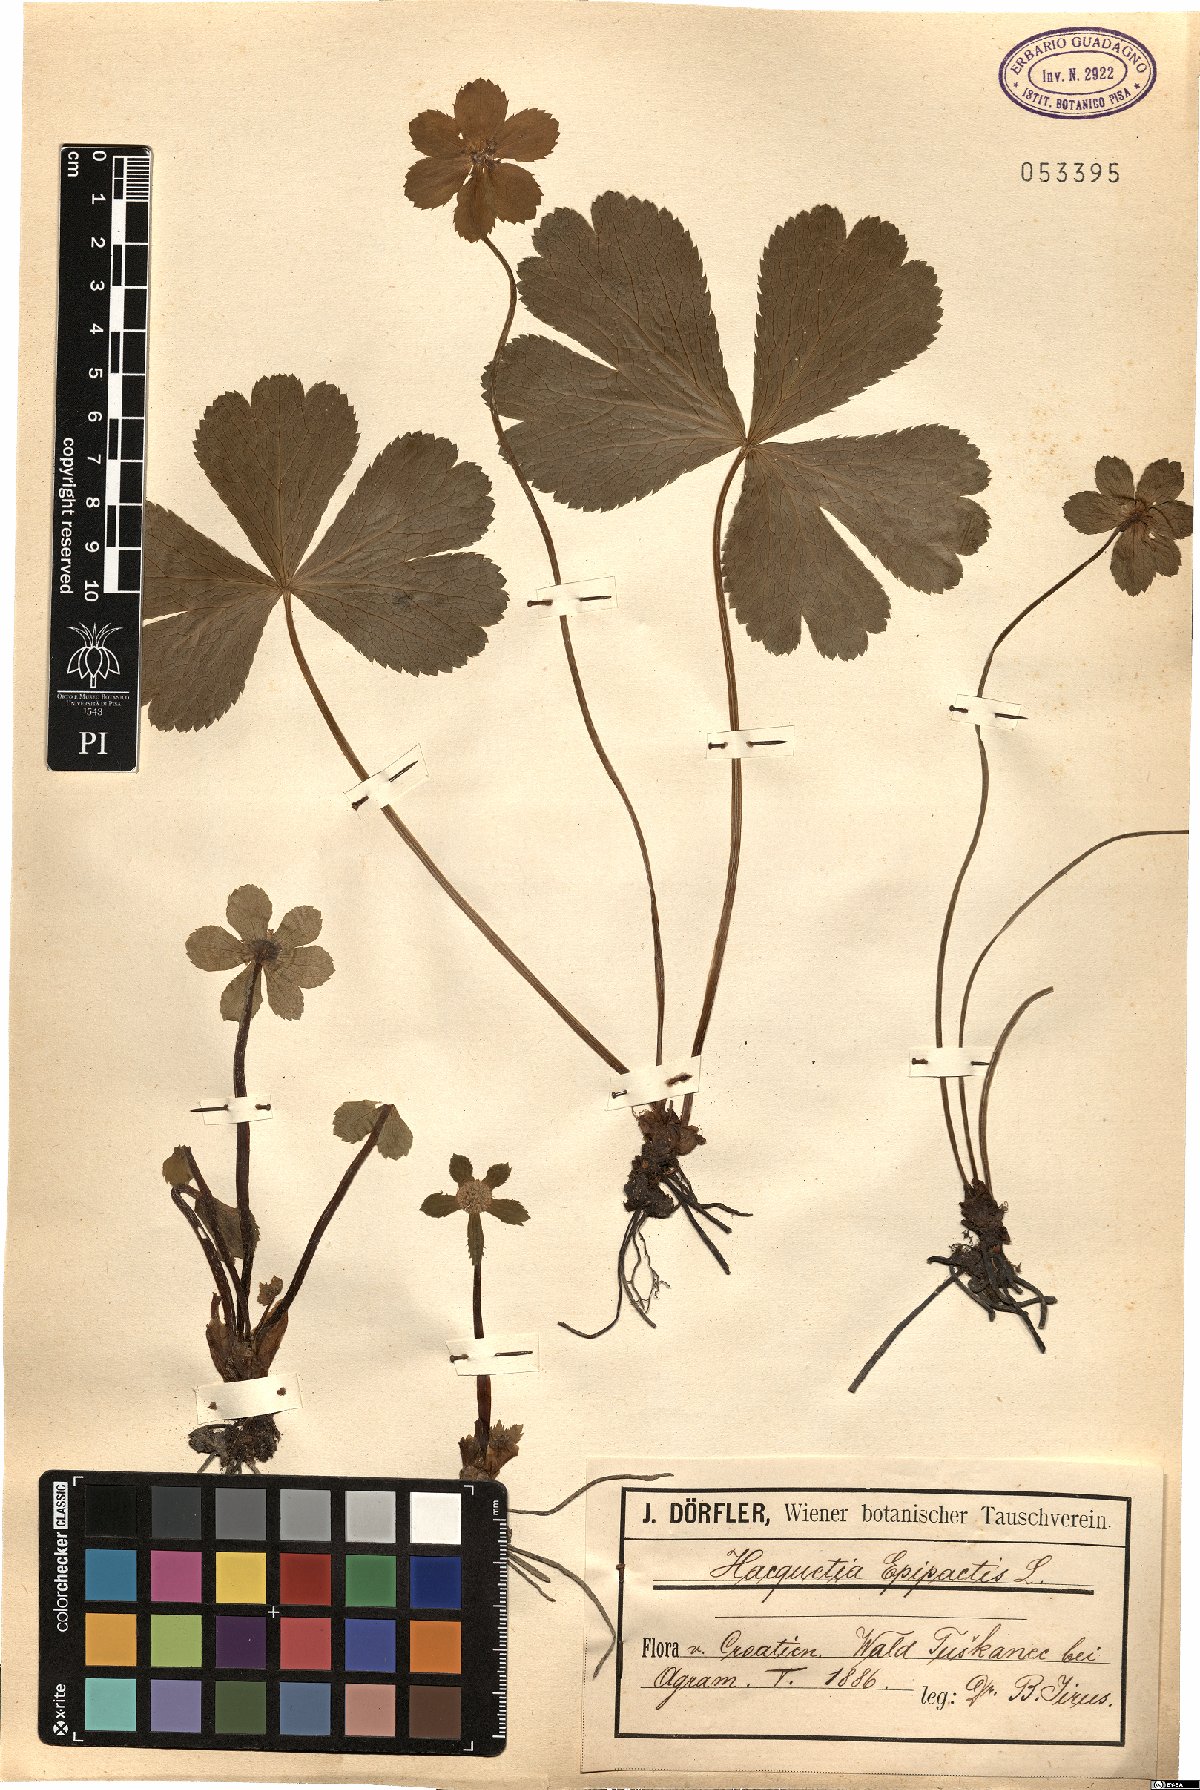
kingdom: Plantae
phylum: Tracheophyta
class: Magnoliopsida
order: Apiales
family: Apiaceae
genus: Sanicula
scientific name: Sanicula epipactis
